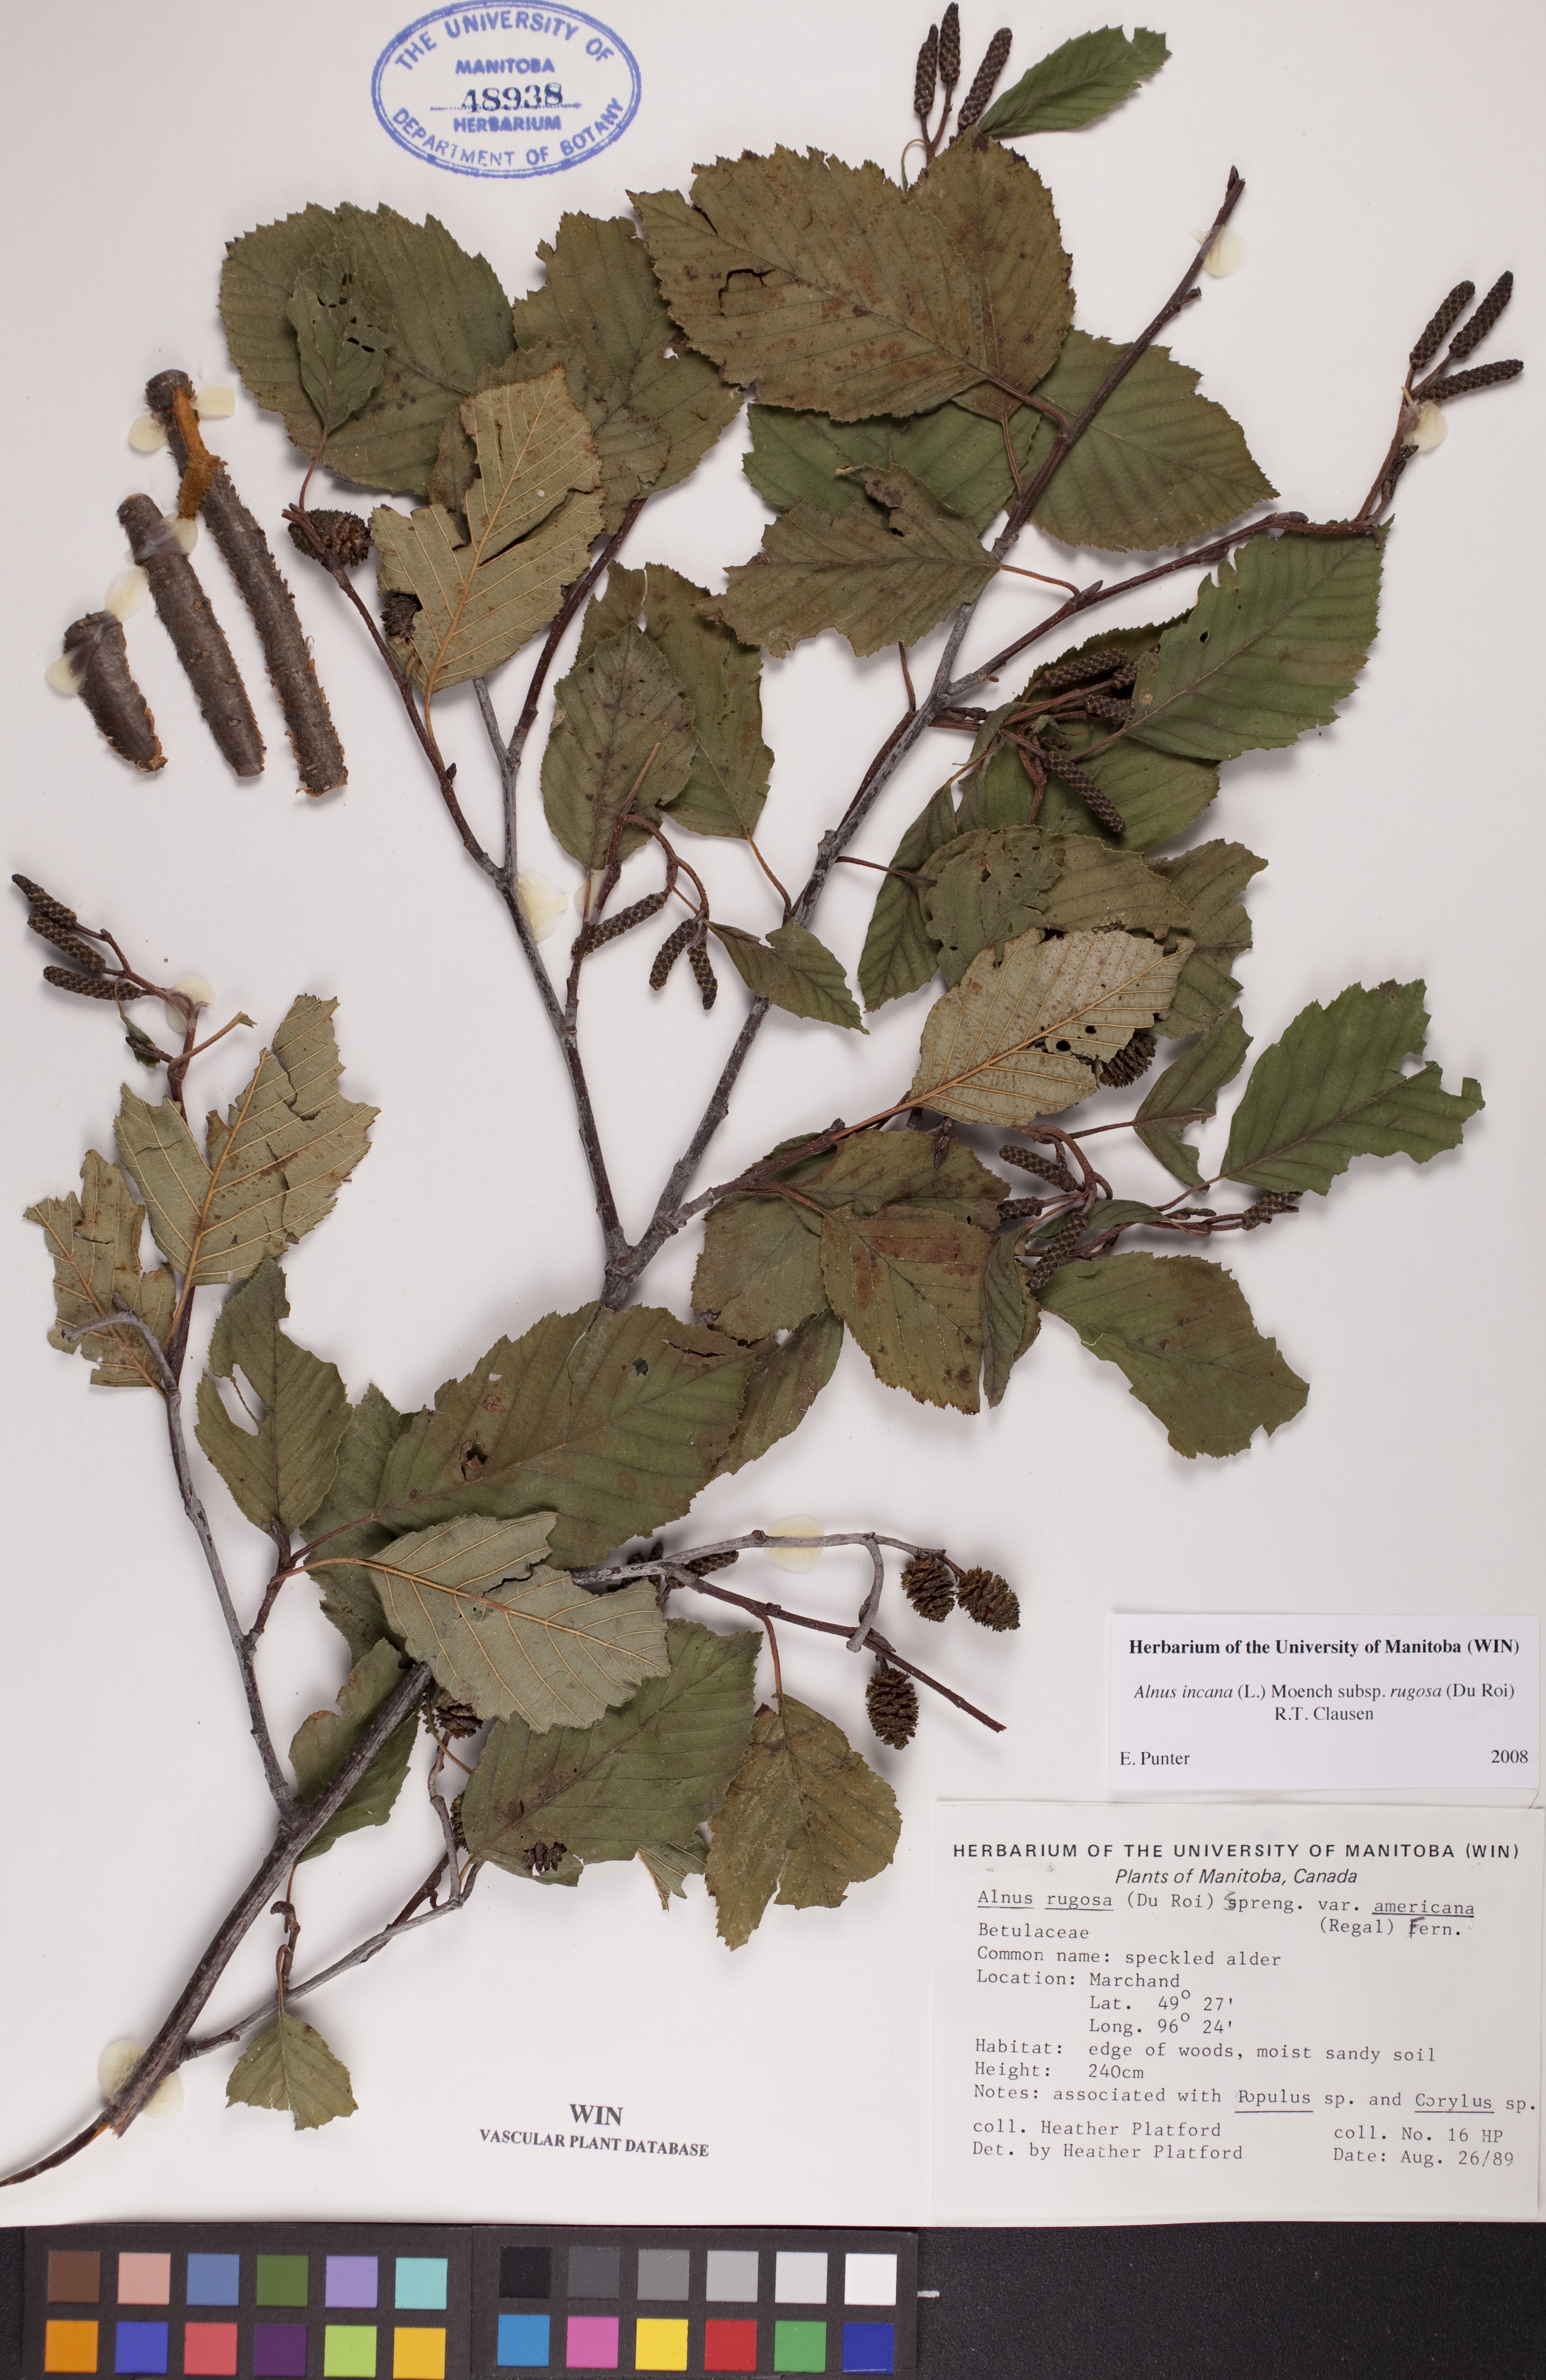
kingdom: Plantae
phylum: Tracheophyta
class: Magnoliopsida
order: Fagales
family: Betulaceae
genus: Alnus
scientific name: Alnus incana
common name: Grey alder
